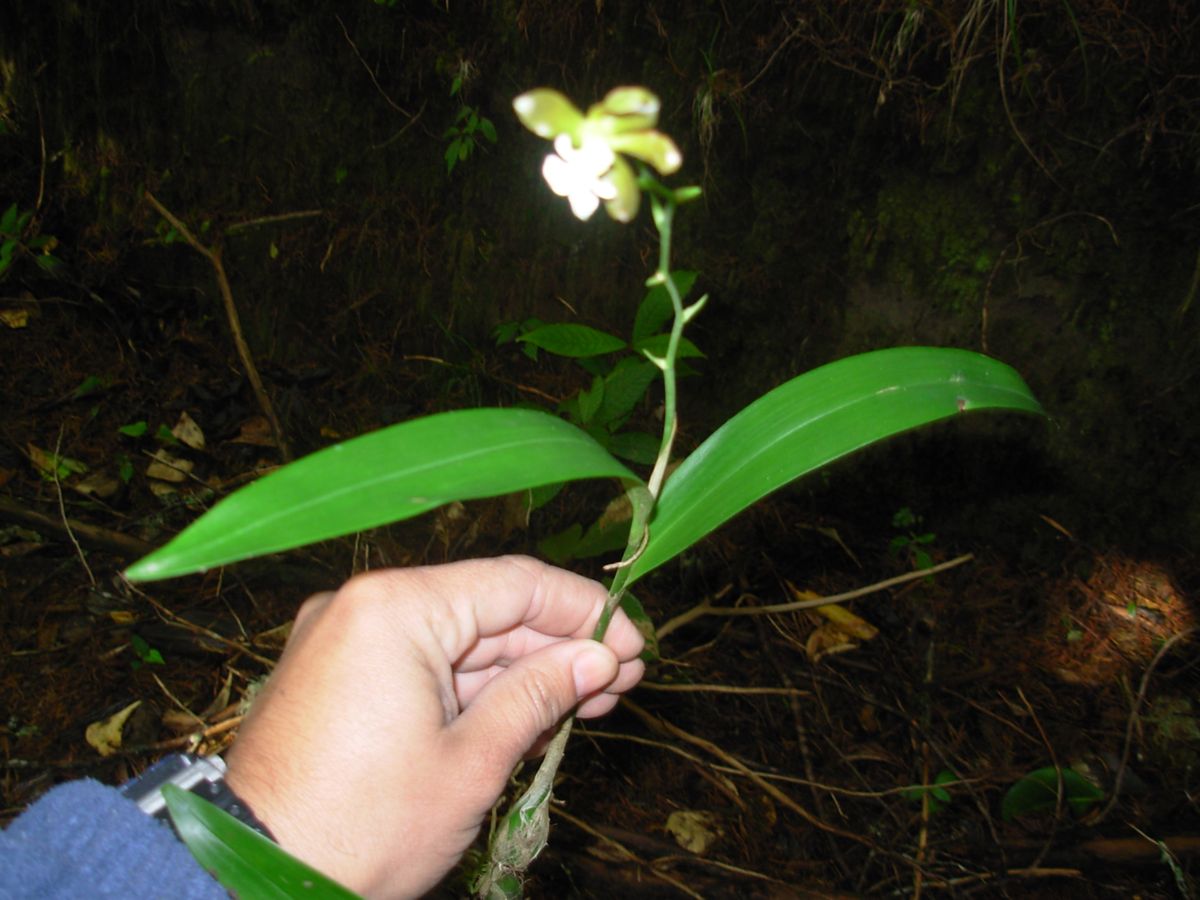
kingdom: Plantae
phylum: Tracheophyta
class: Liliopsida
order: Asparagales
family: Orchidaceae
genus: Prosthechea
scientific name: Prosthechea varicosa
